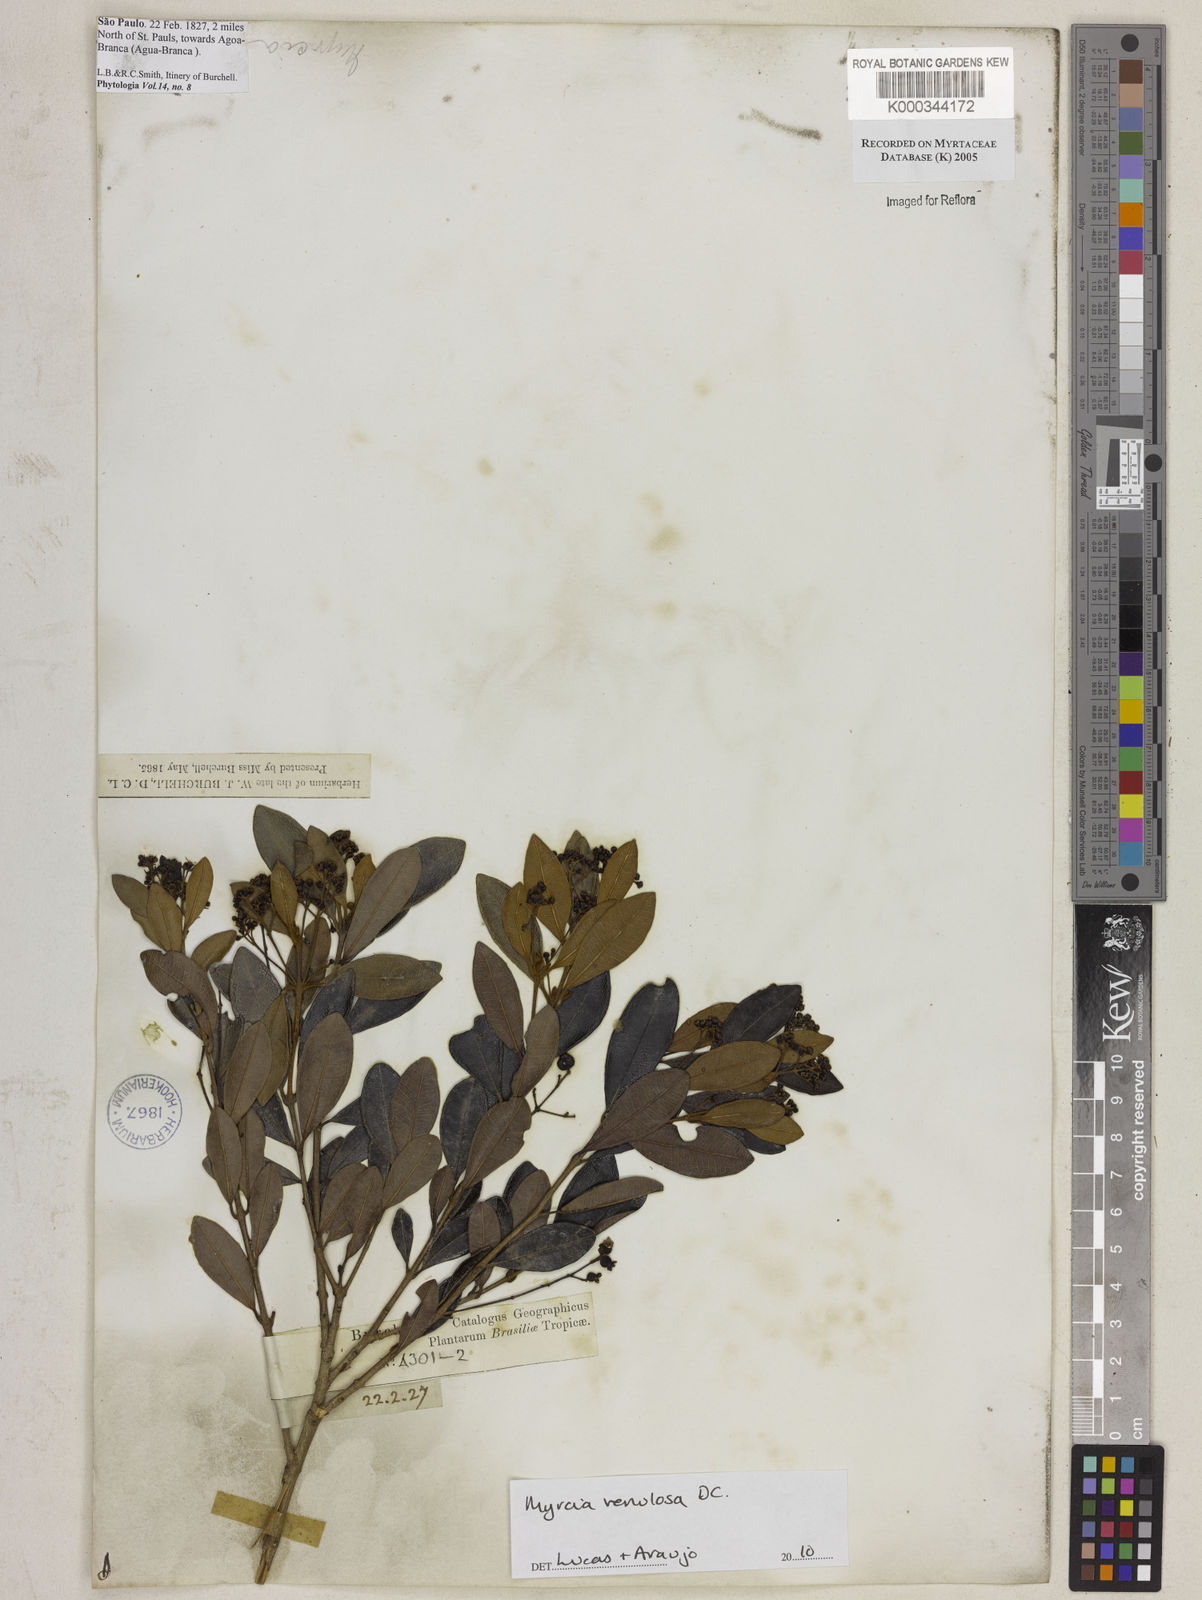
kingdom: Plantae
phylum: Tracheophyta
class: Magnoliopsida
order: Myrtales
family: Myrtaceae
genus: Myrcia
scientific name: Myrcia richardiana
